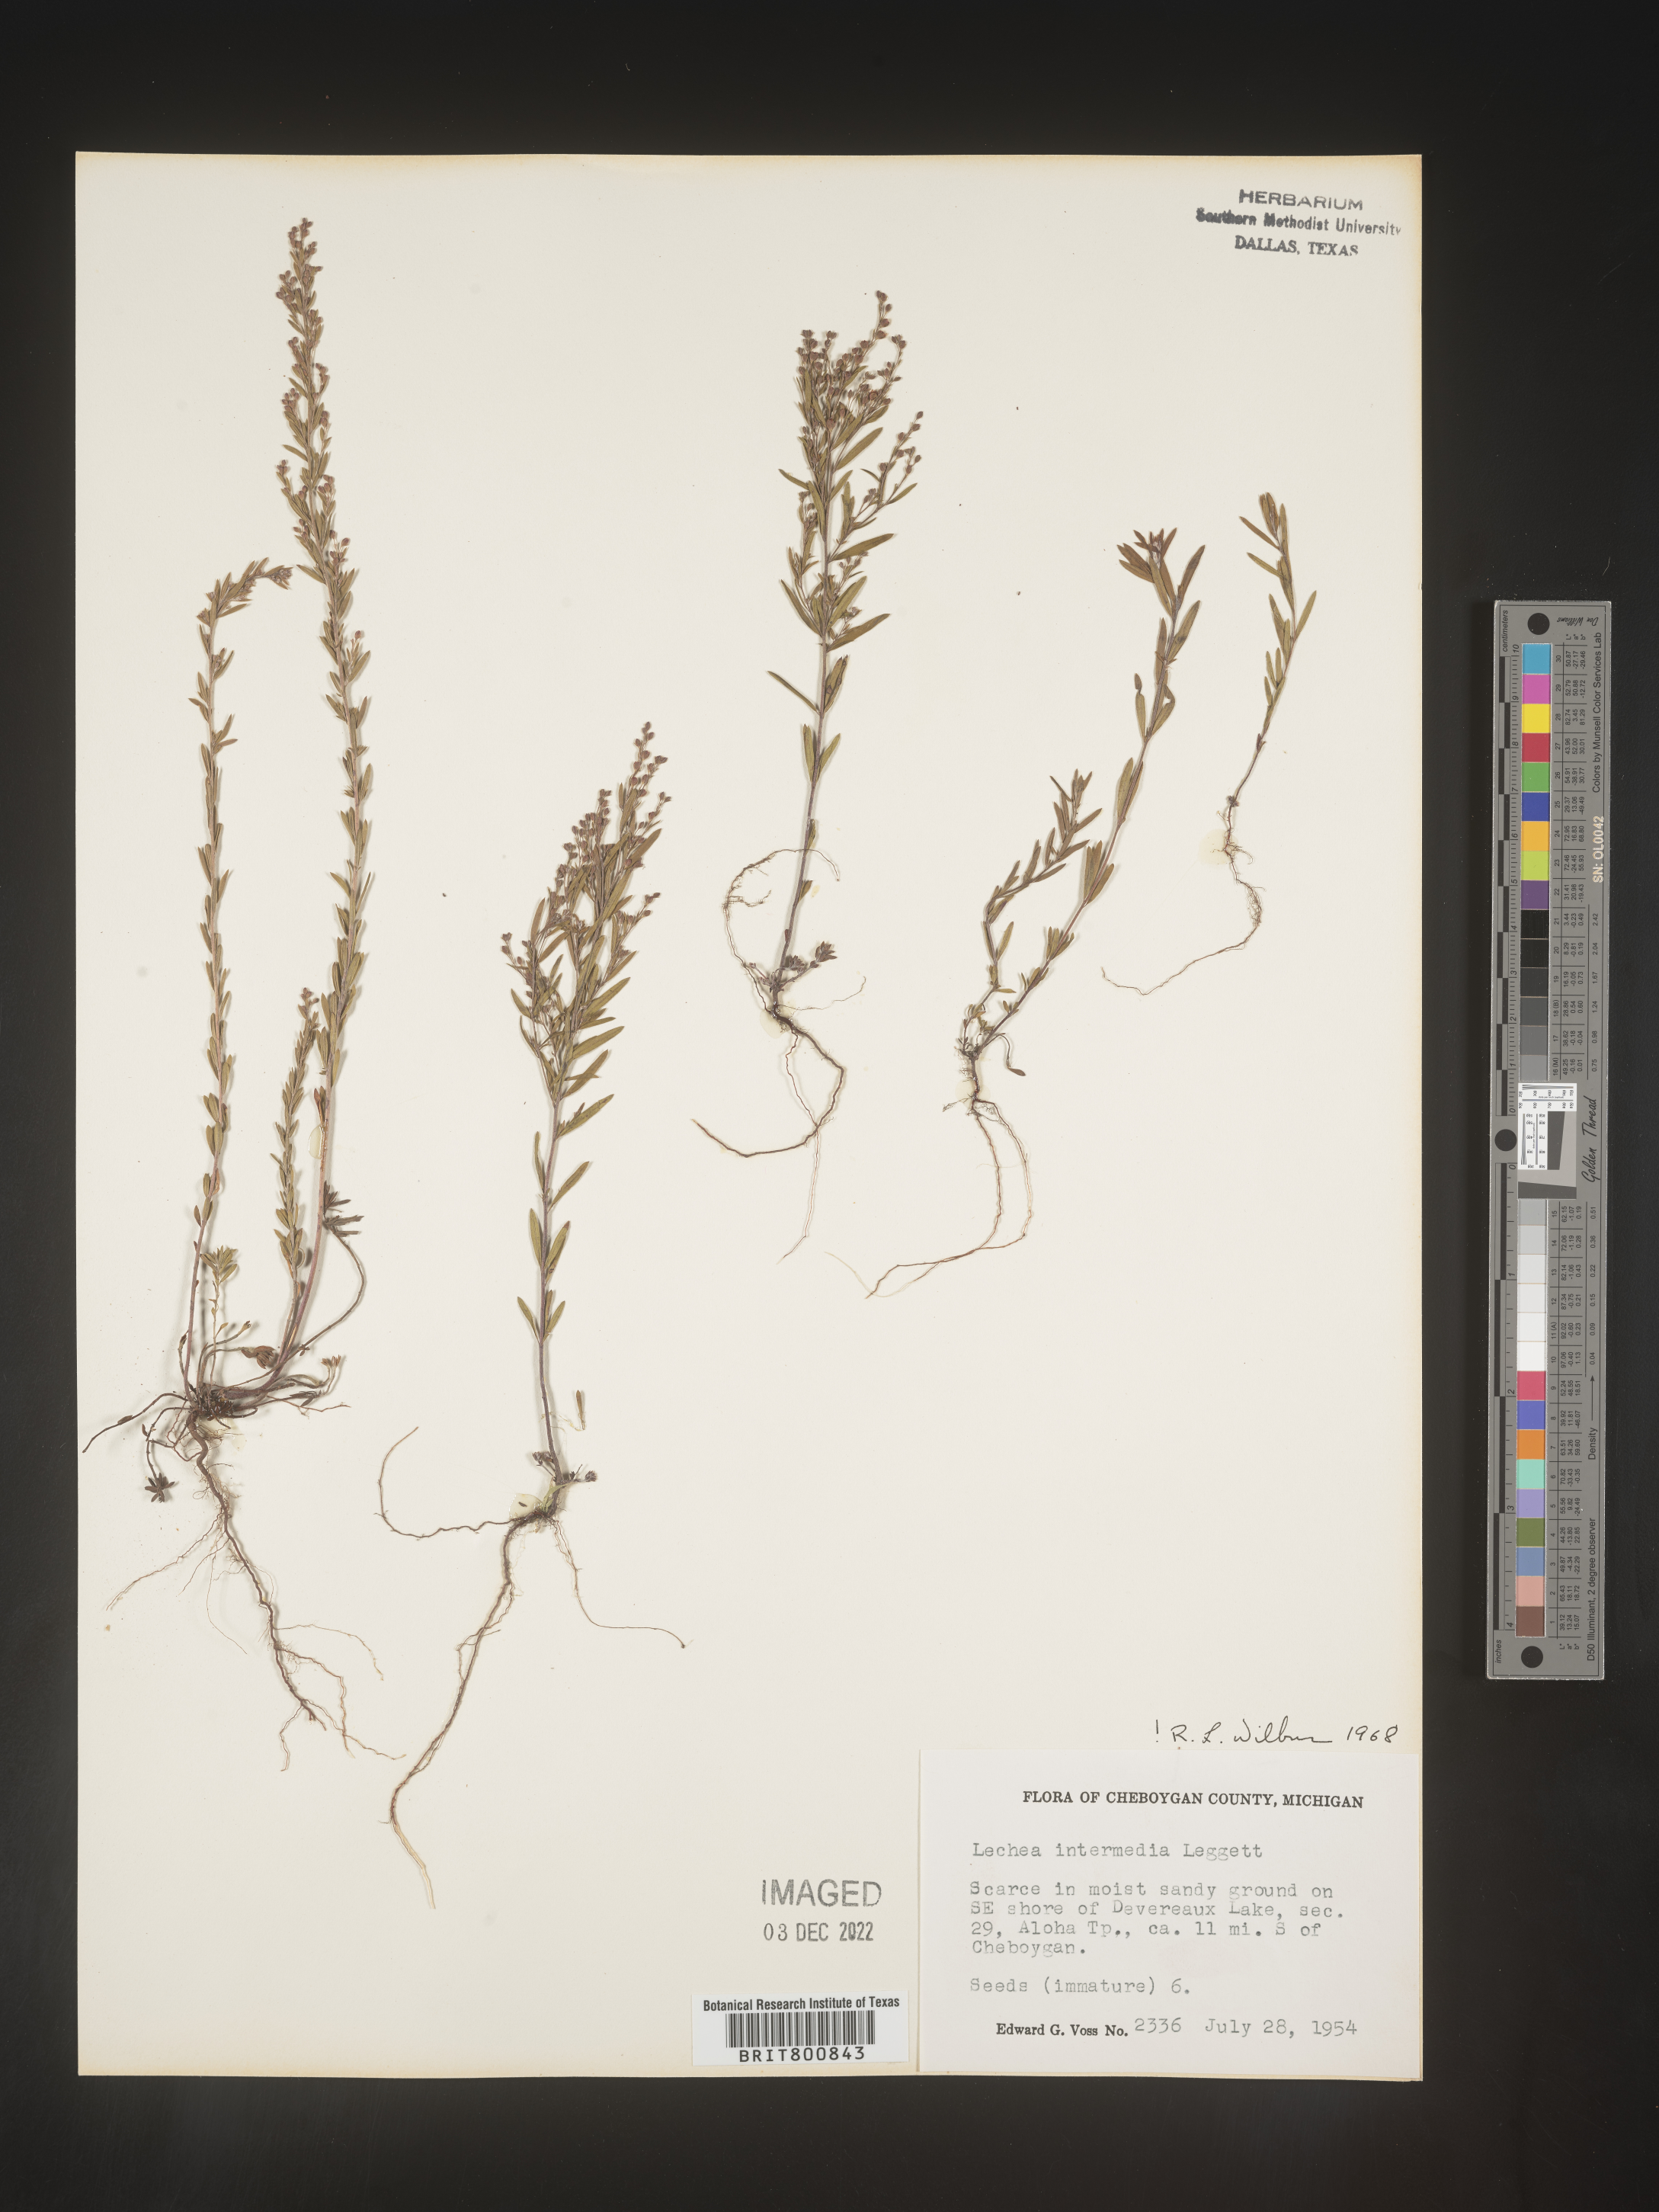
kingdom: Plantae
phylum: Tracheophyta
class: Magnoliopsida
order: Malvales
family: Cistaceae
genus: Lechea
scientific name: Lechea intermedia
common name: Intermediate pinweed
